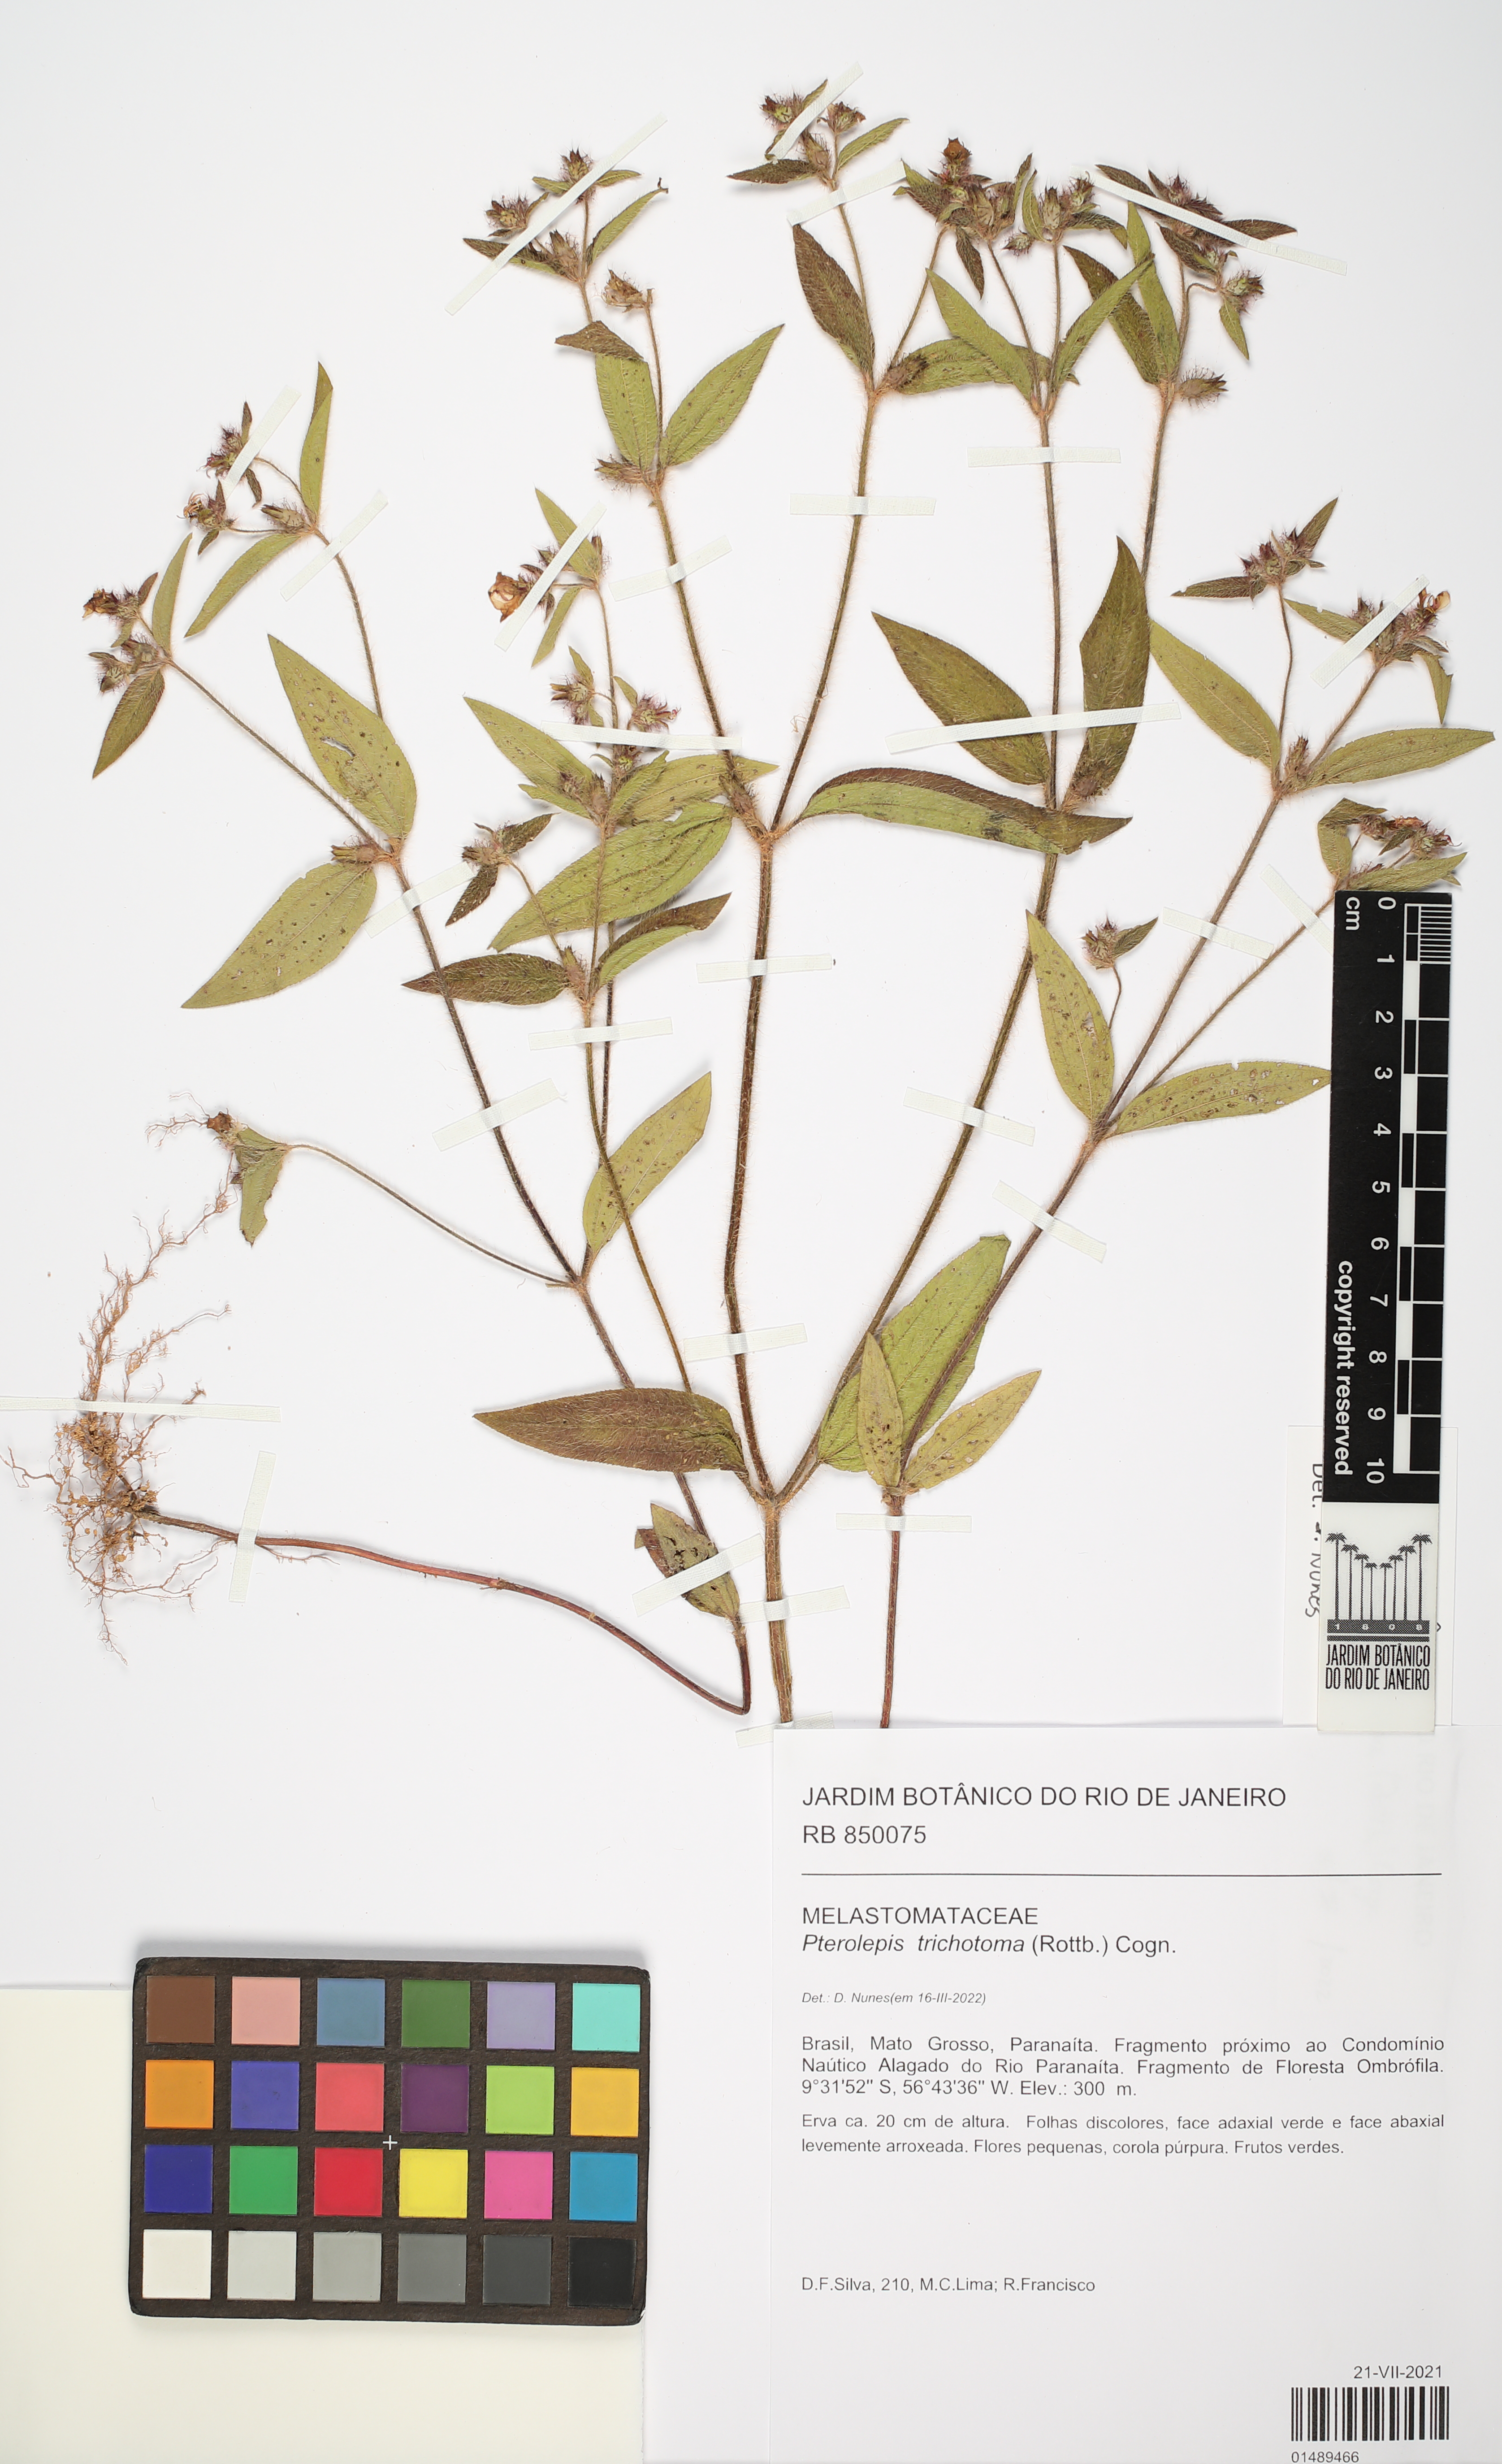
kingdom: Plantae
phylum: Tracheophyta
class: Magnoliopsida
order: Myrtales
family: Melastomataceae
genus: Pterolepis
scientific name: Pterolepis trichotoma
